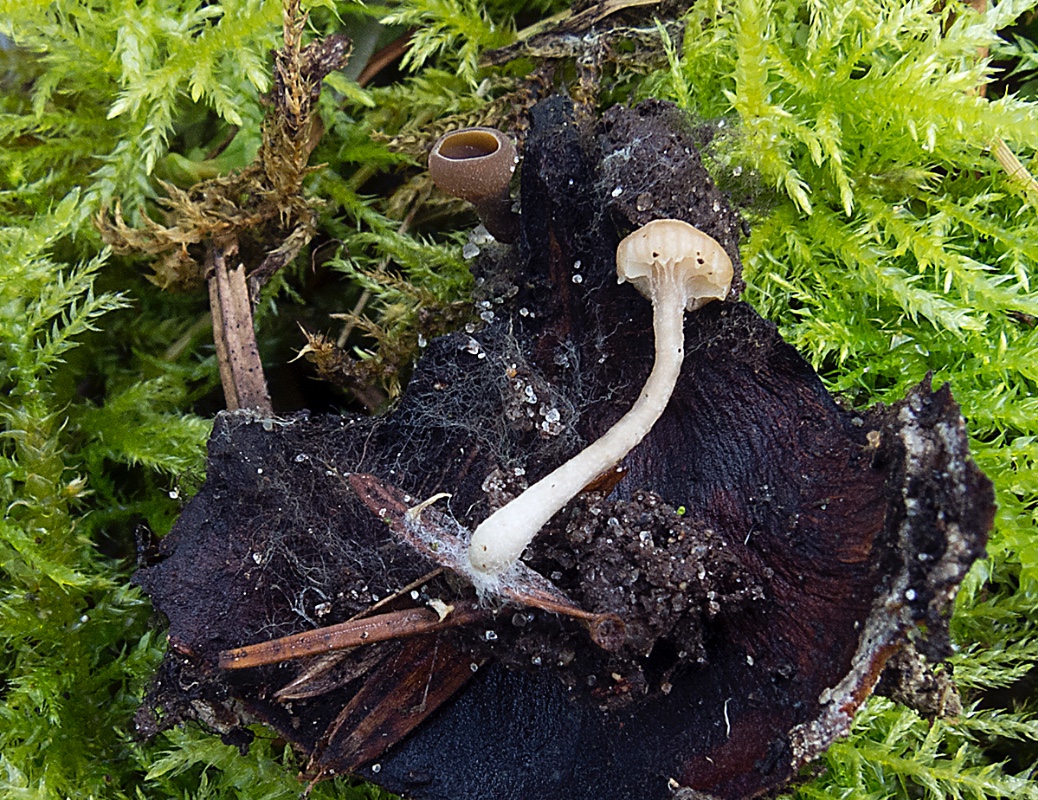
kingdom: Fungi
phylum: Basidiomycota
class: Agaricomycetes
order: Agaricales
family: Tricholomataceae
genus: Gamundia
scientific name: Gamundia striatula
